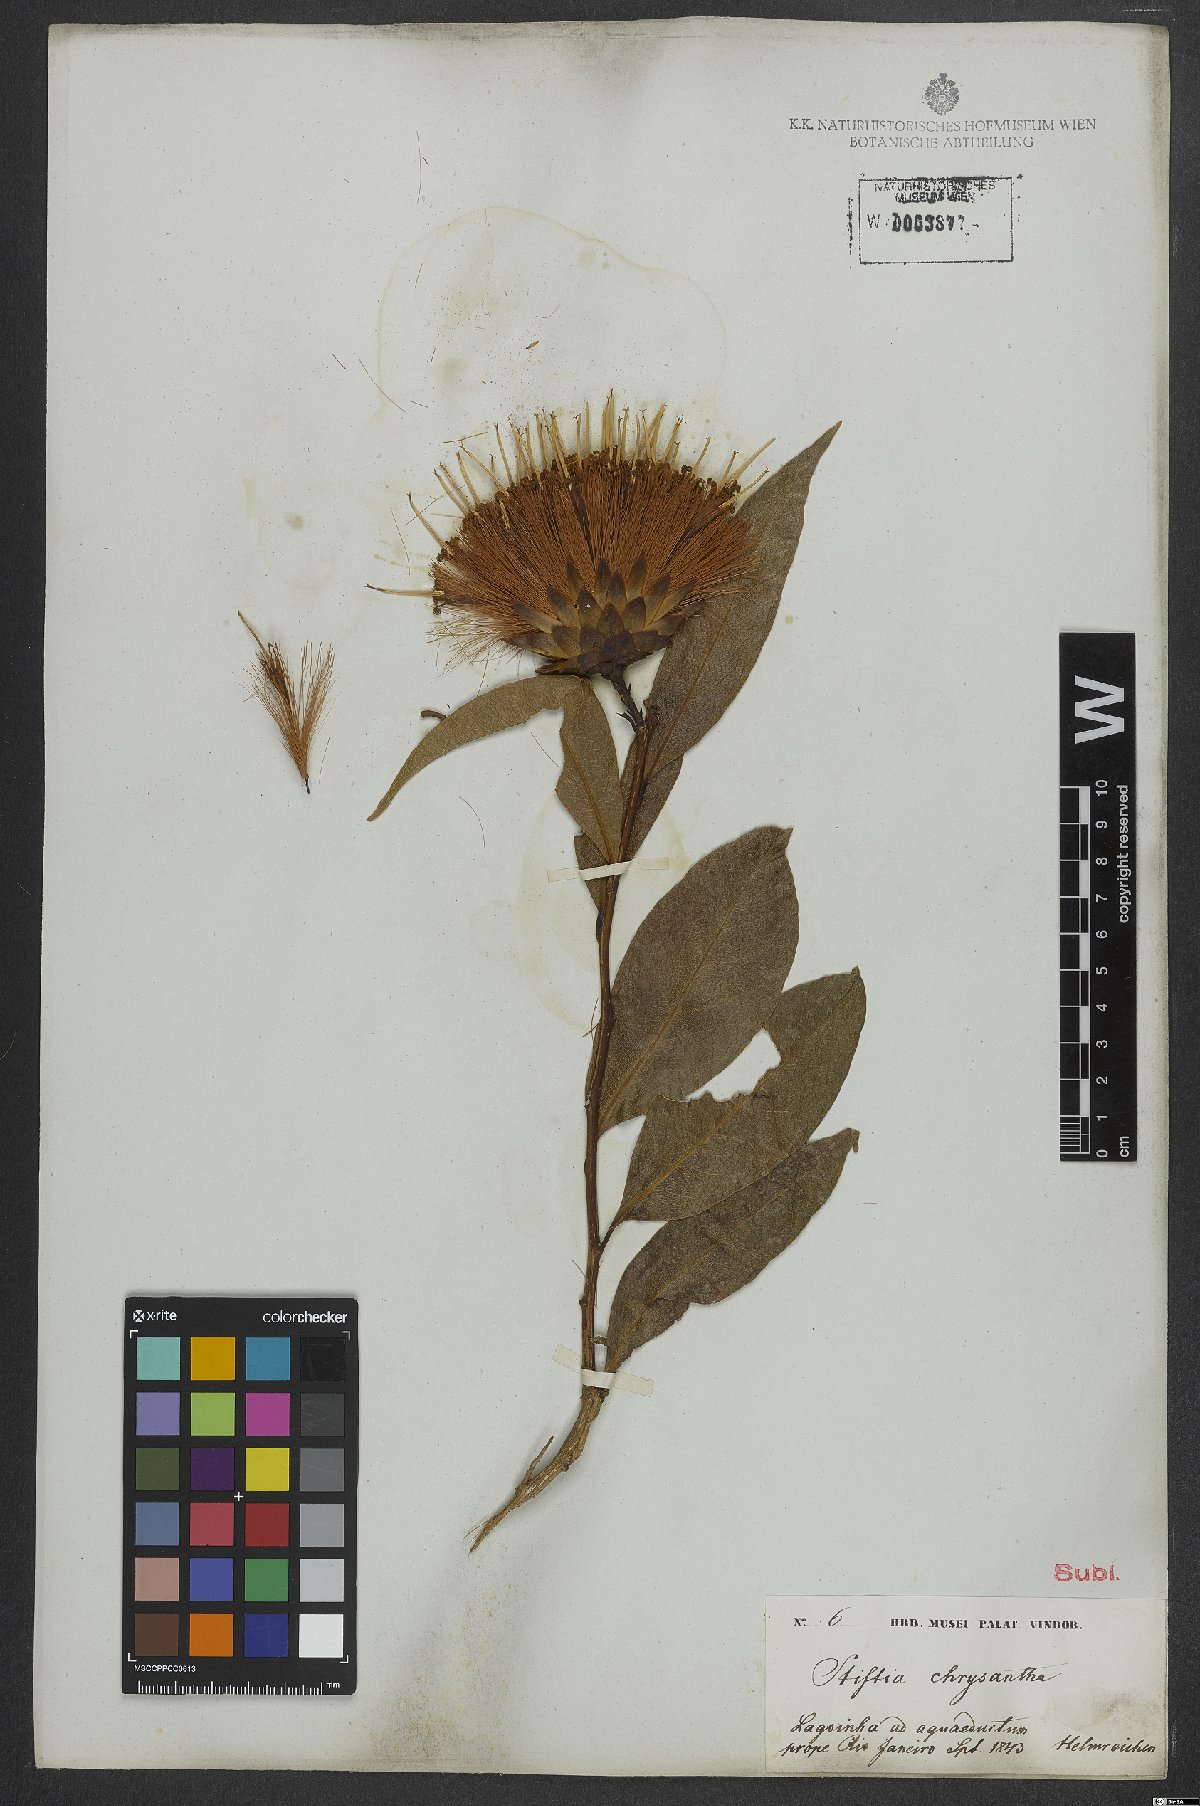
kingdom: Plantae
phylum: Tracheophyta
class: Magnoliopsida
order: Asterales
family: Asteraceae
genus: Stifftia
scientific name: Stifftia chrysantha
